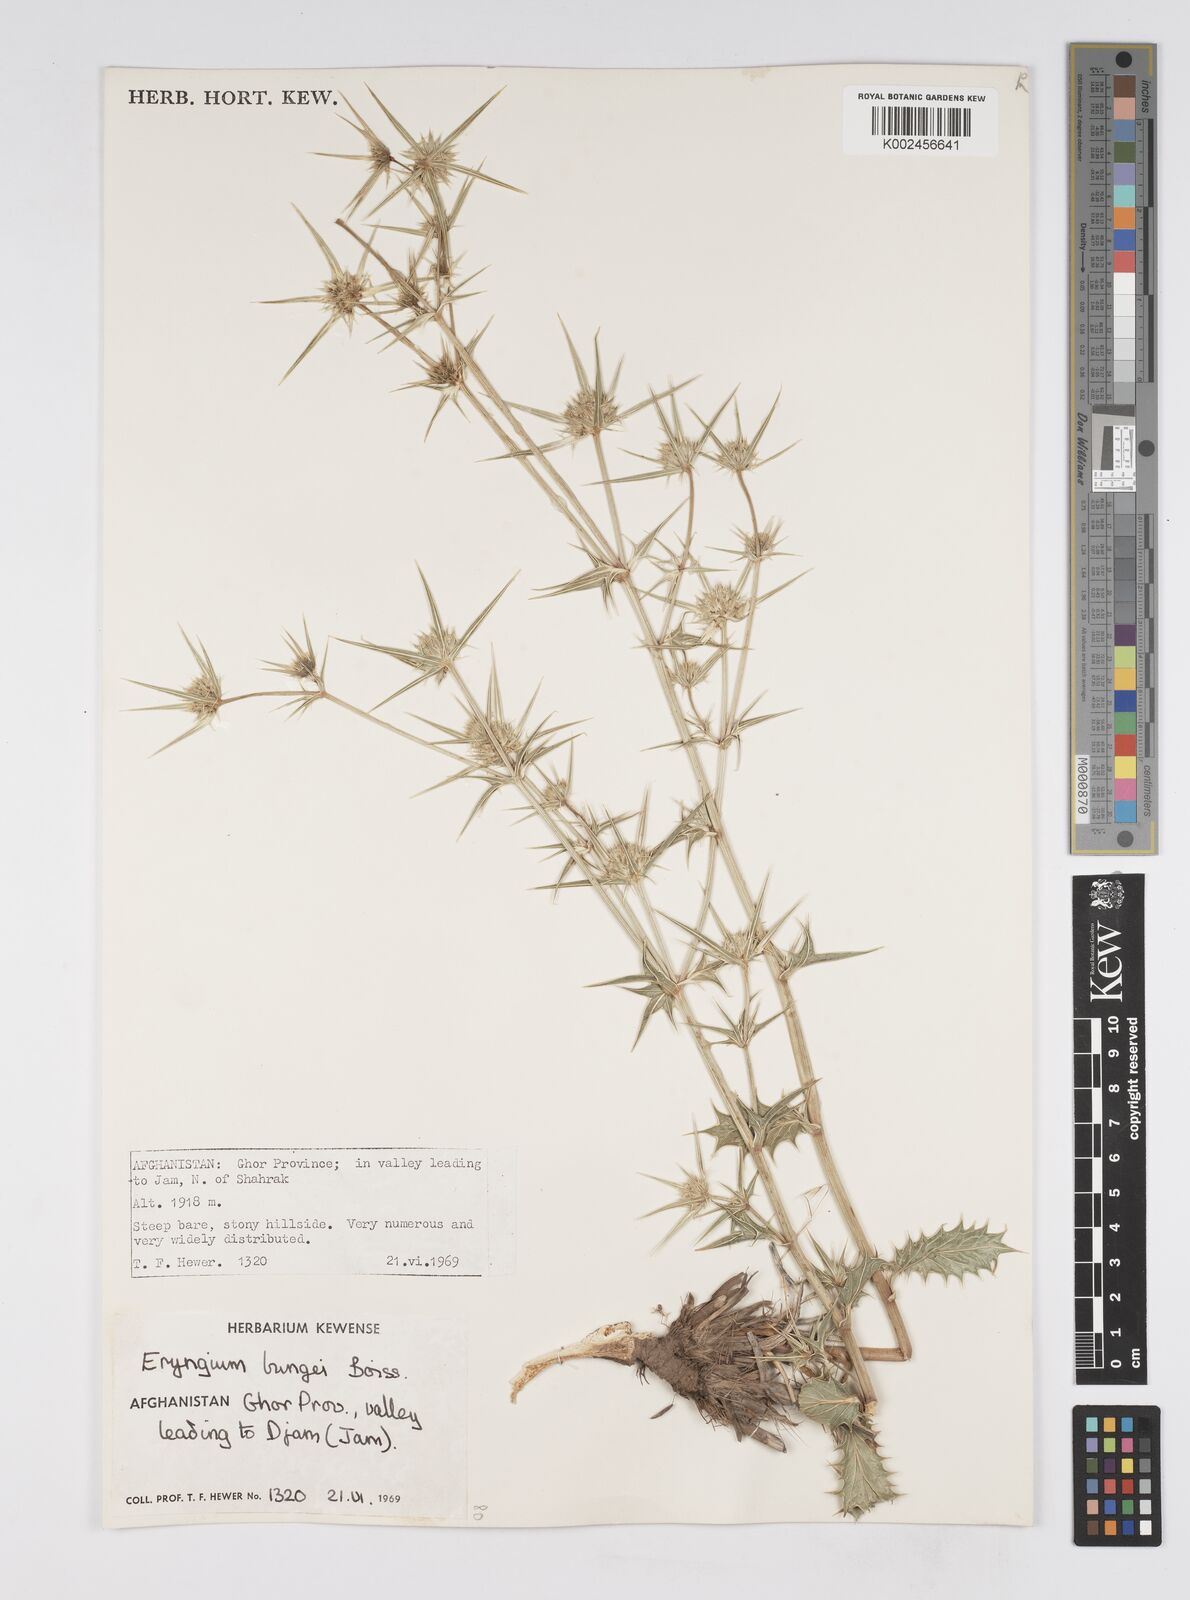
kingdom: Plantae
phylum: Tracheophyta
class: Magnoliopsida
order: Apiales
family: Apiaceae
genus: Eryngium
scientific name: Eryngium bungei
